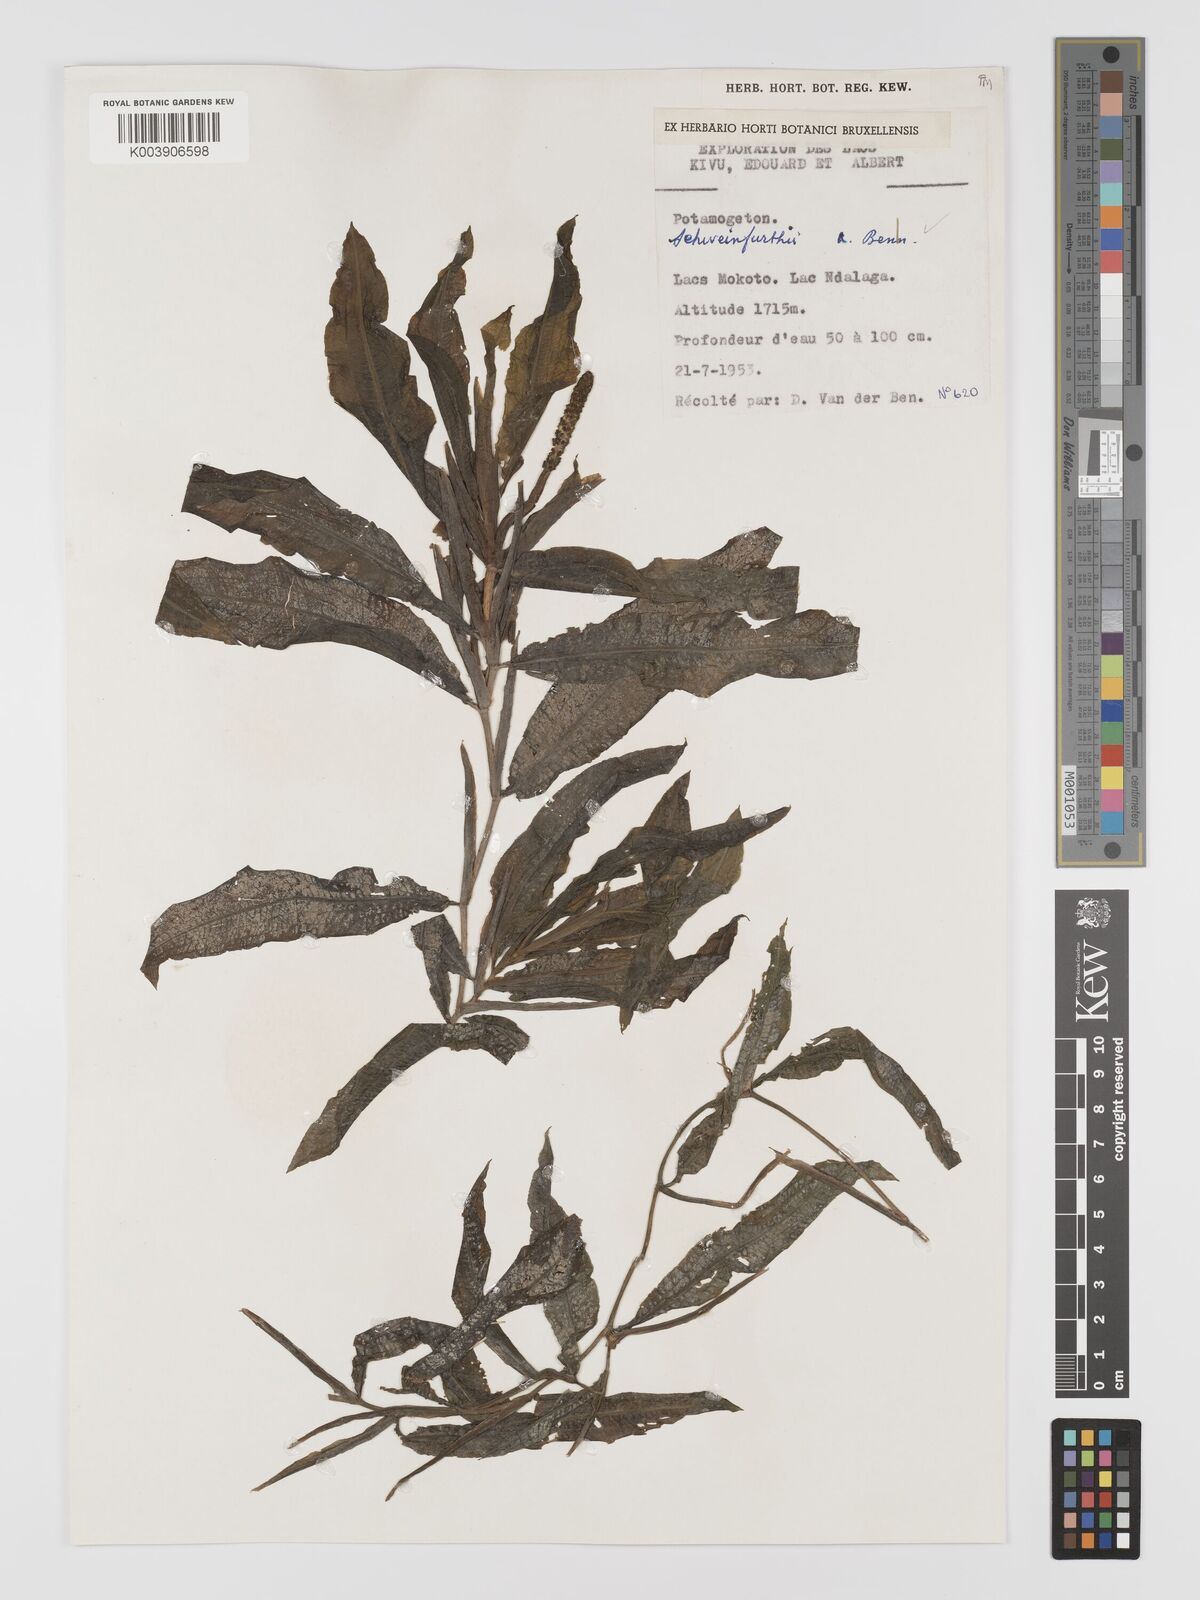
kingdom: Plantae
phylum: Tracheophyta
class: Liliopsida
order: Alismatales
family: Potamogetonaceae
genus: Potamogeton
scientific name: Potamogeton schweinfurthii
